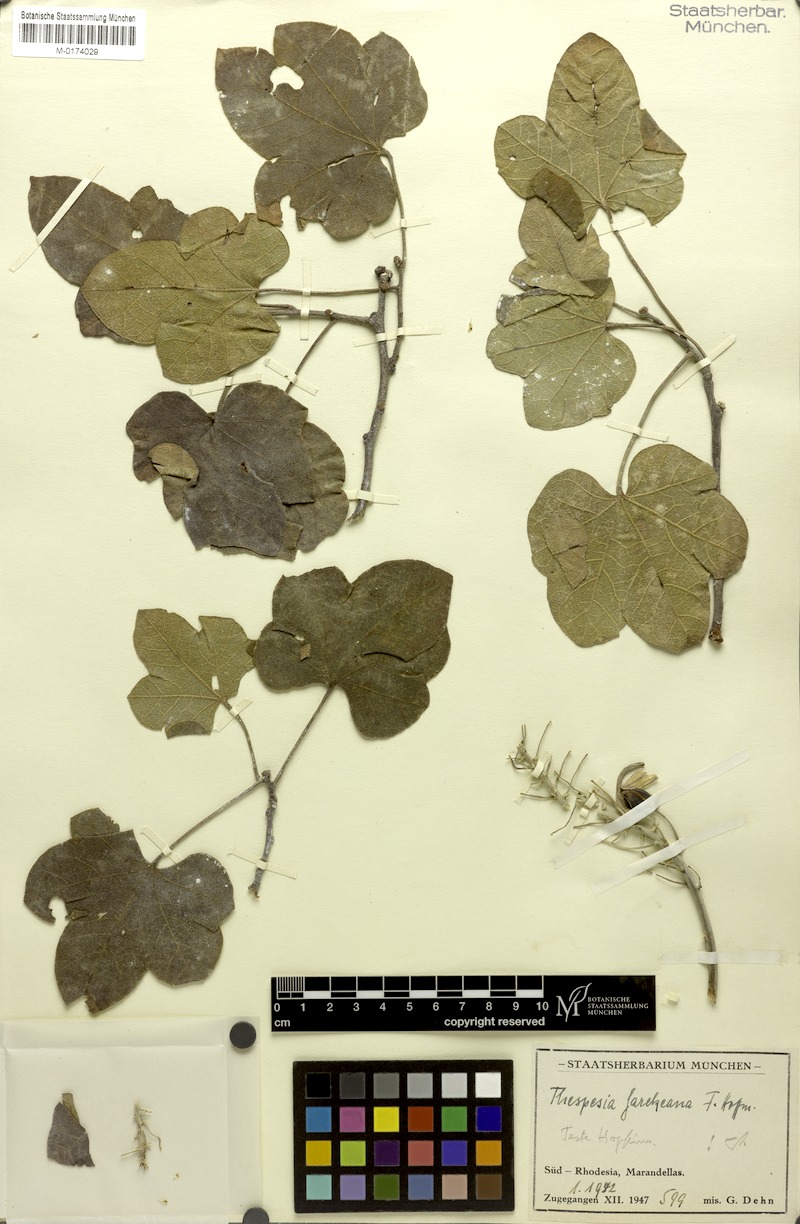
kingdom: Plantae
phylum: Tracheophyta
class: Magnoliopsida
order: Malvales
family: Malvaceae
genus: Thespesia
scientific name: Thespesia garckeana
